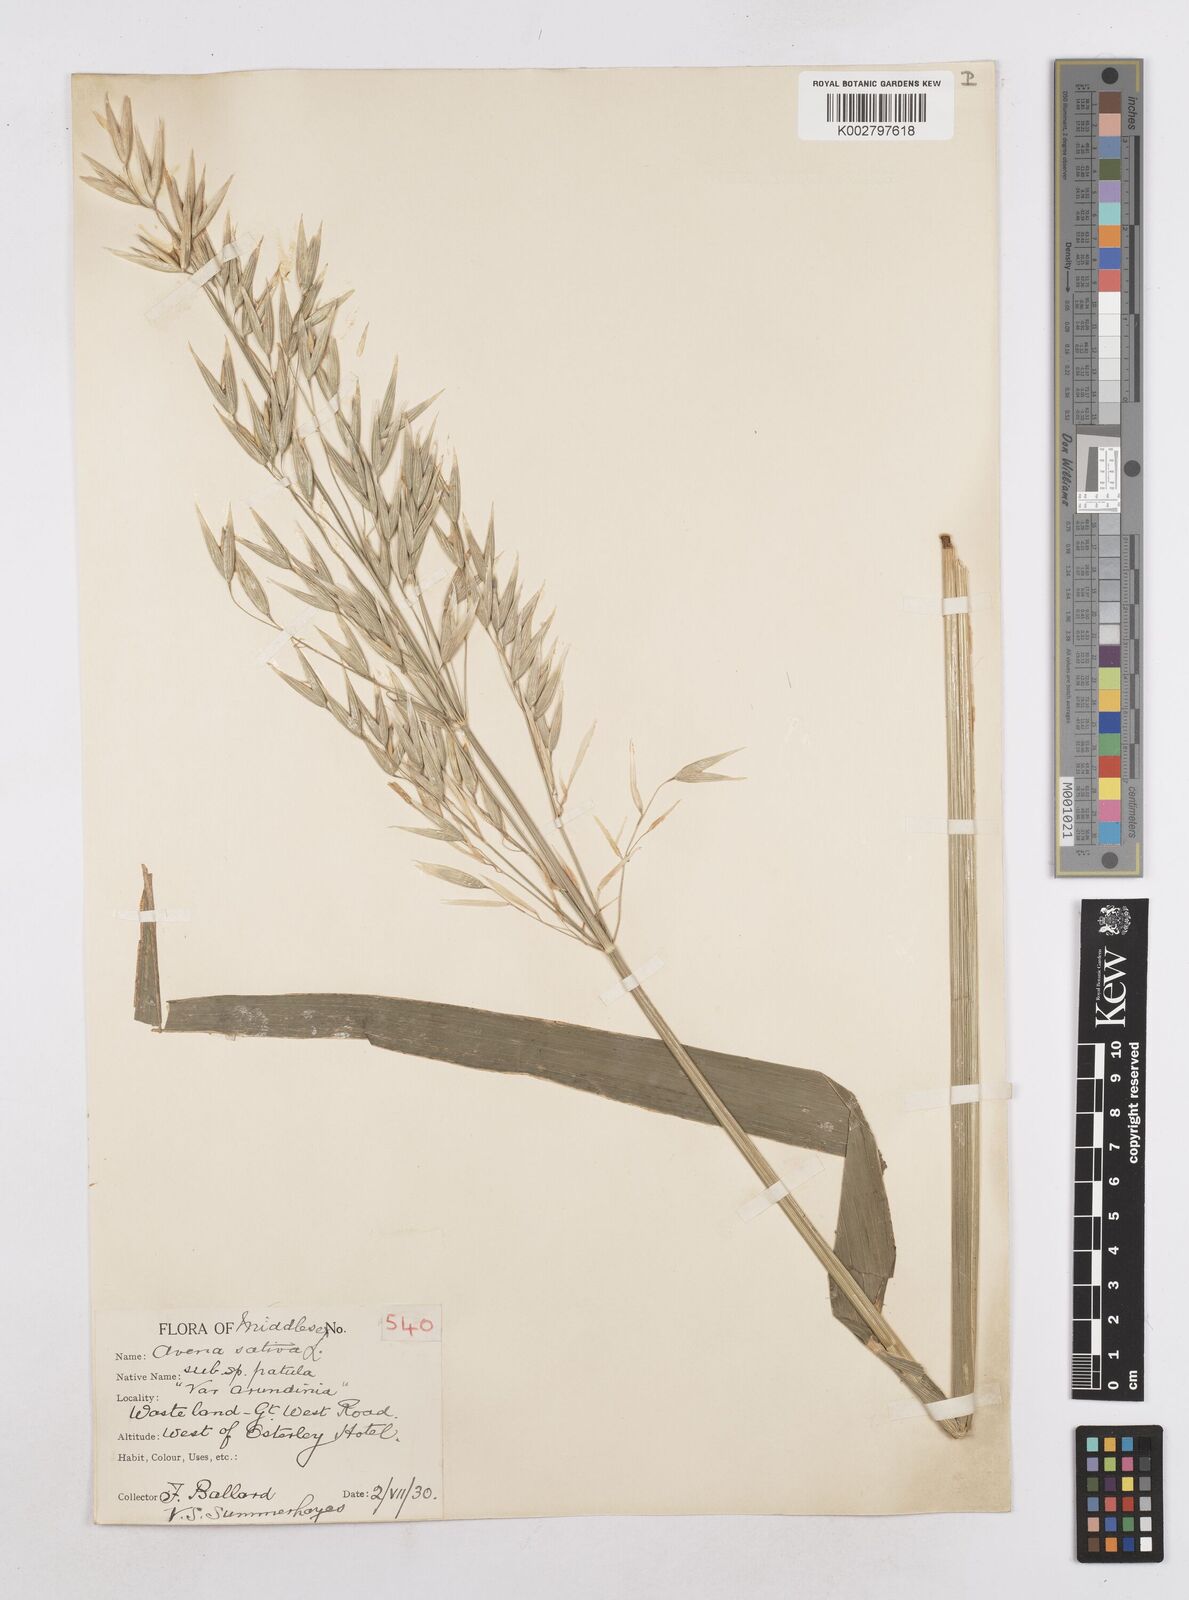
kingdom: Plantae
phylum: Tracheophyta
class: Liliopsida
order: Poales
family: Poaceae
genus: Avena
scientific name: Avena sativa
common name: Oat
